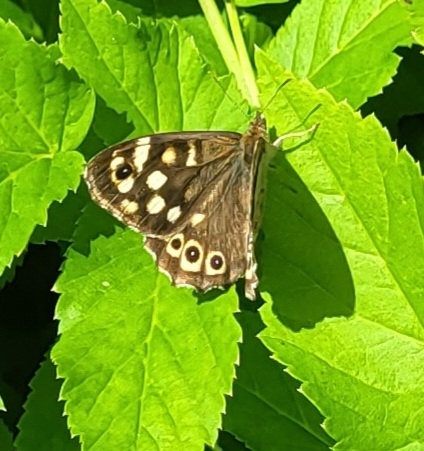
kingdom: Animalia
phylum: Arthropoda
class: Insecta
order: Lepidoptera
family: Nymphalidae
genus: Pararge
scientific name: Pararge aegeria
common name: Skovrandøje
